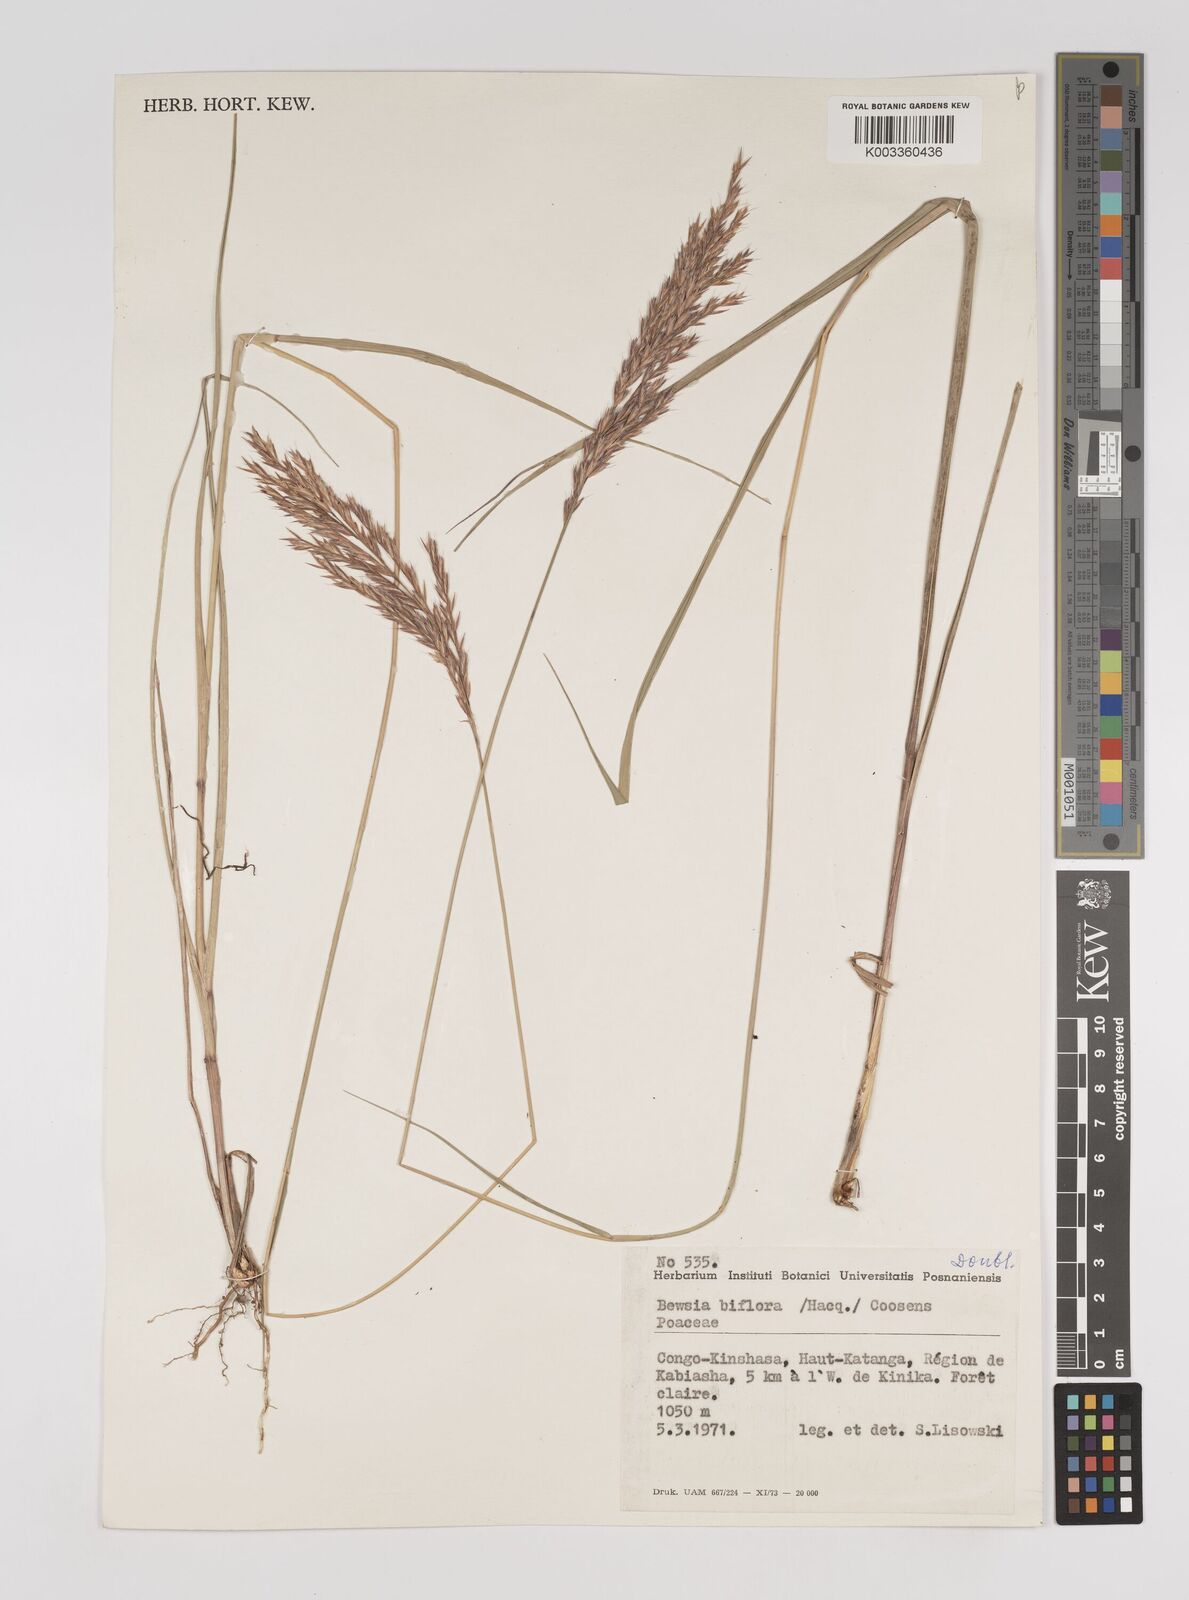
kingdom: Plantae
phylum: Tracheophyta
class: Liliopsida
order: Poales
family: Poaceae
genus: Bewsia
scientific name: Bewsia biflora
